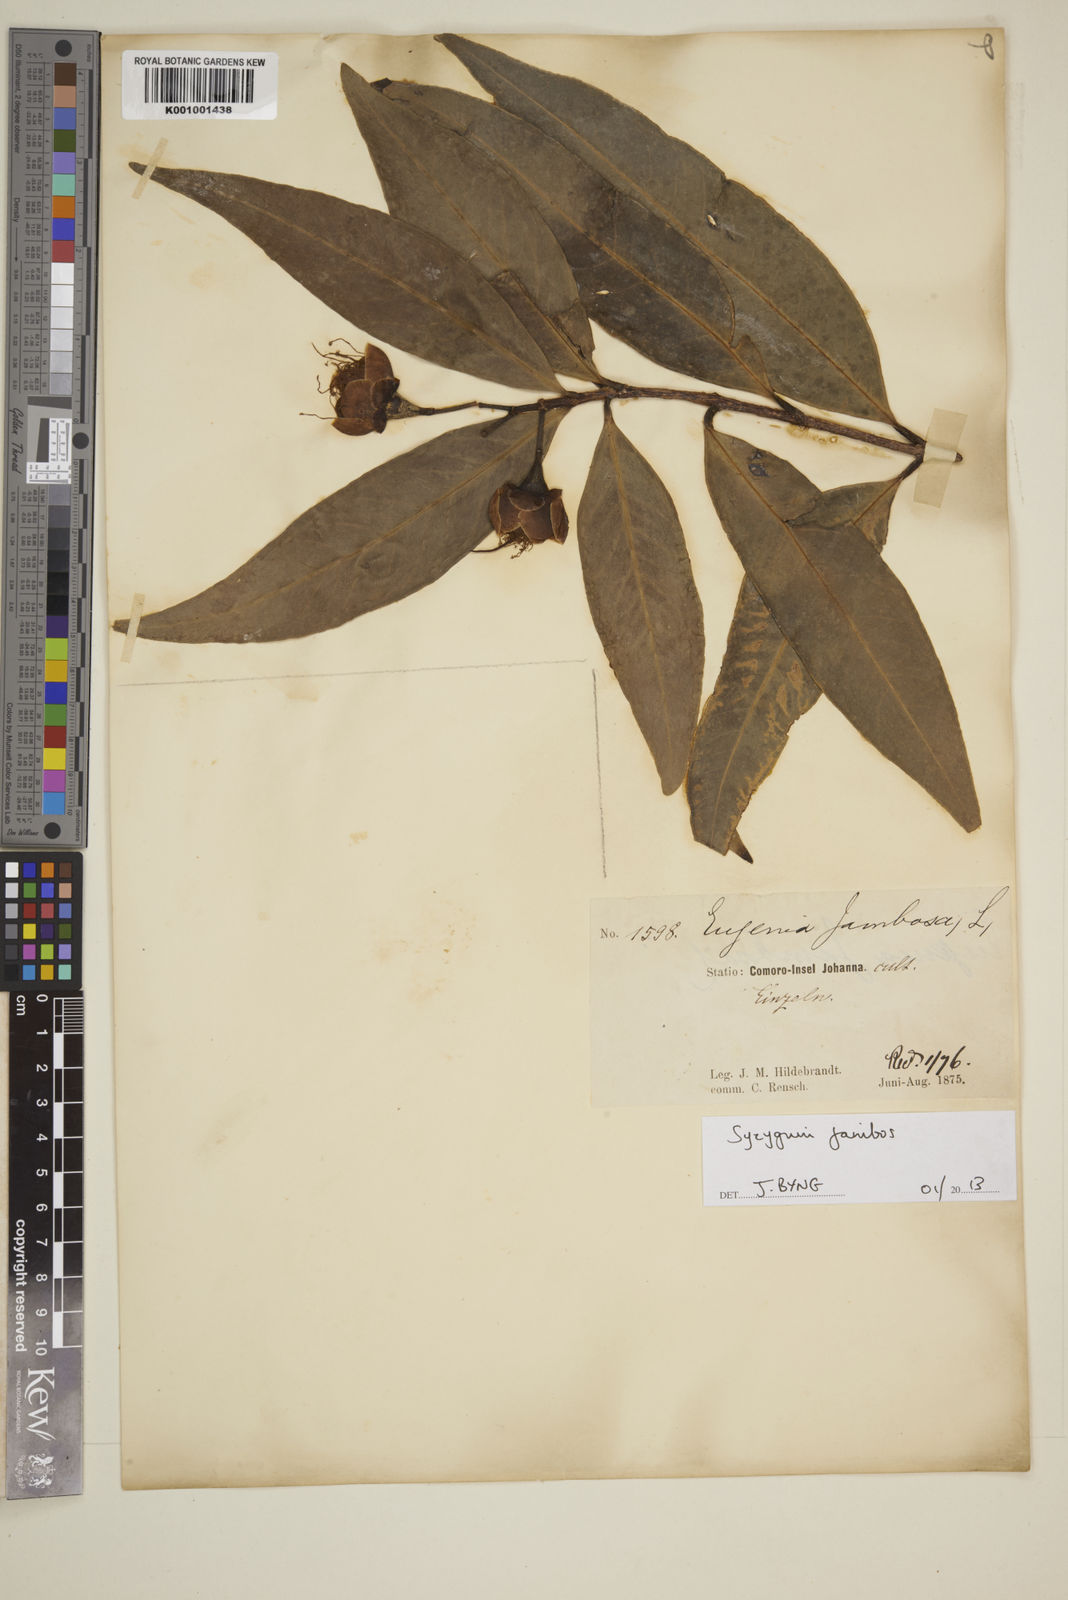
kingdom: Plantae
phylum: Tracheophyta
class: Magnoliopsida
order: Myrtales
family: Myrtaceae
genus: Syzygium
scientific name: Syzygium jambos
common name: Malabar plum
